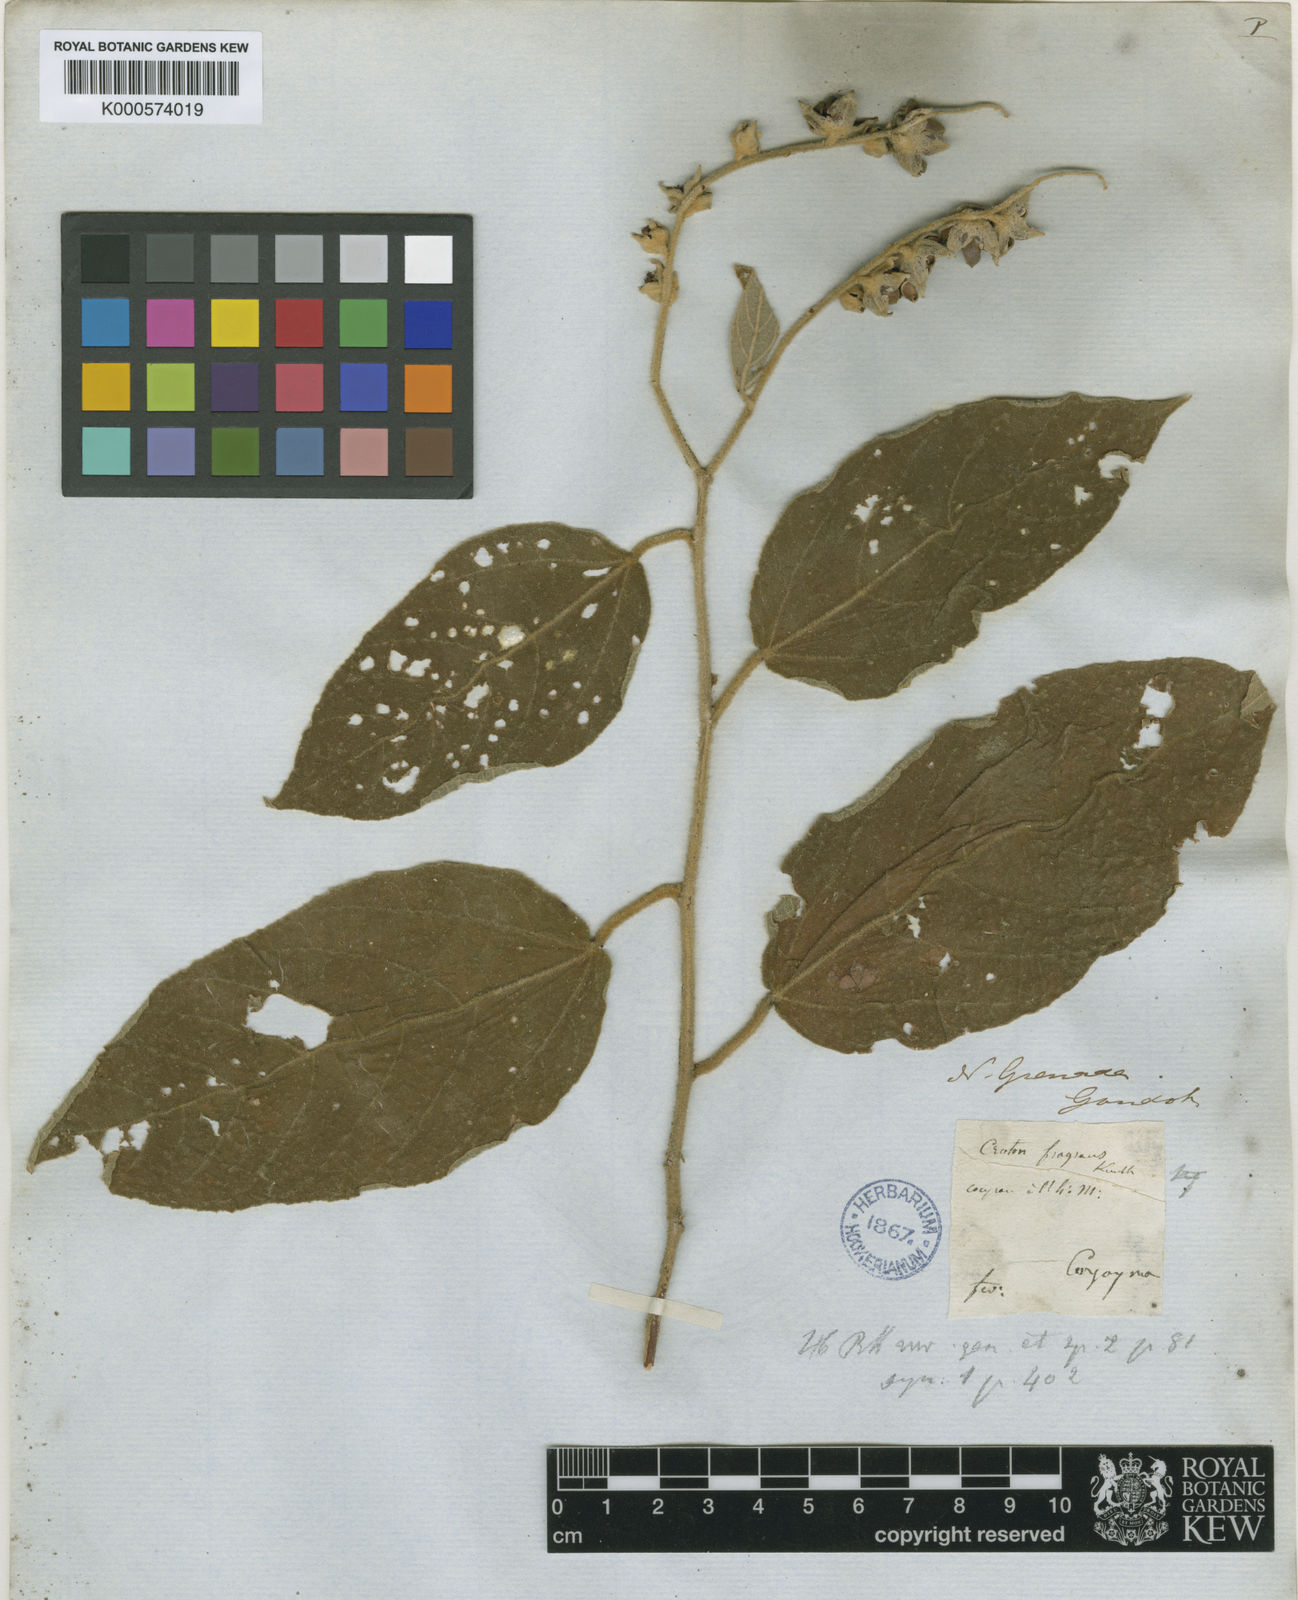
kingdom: Plantae
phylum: Tracheophyta
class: Magnoliopsida
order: Malpighiales
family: Euphorbiaceae
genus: Croton
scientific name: Croton fragrans
